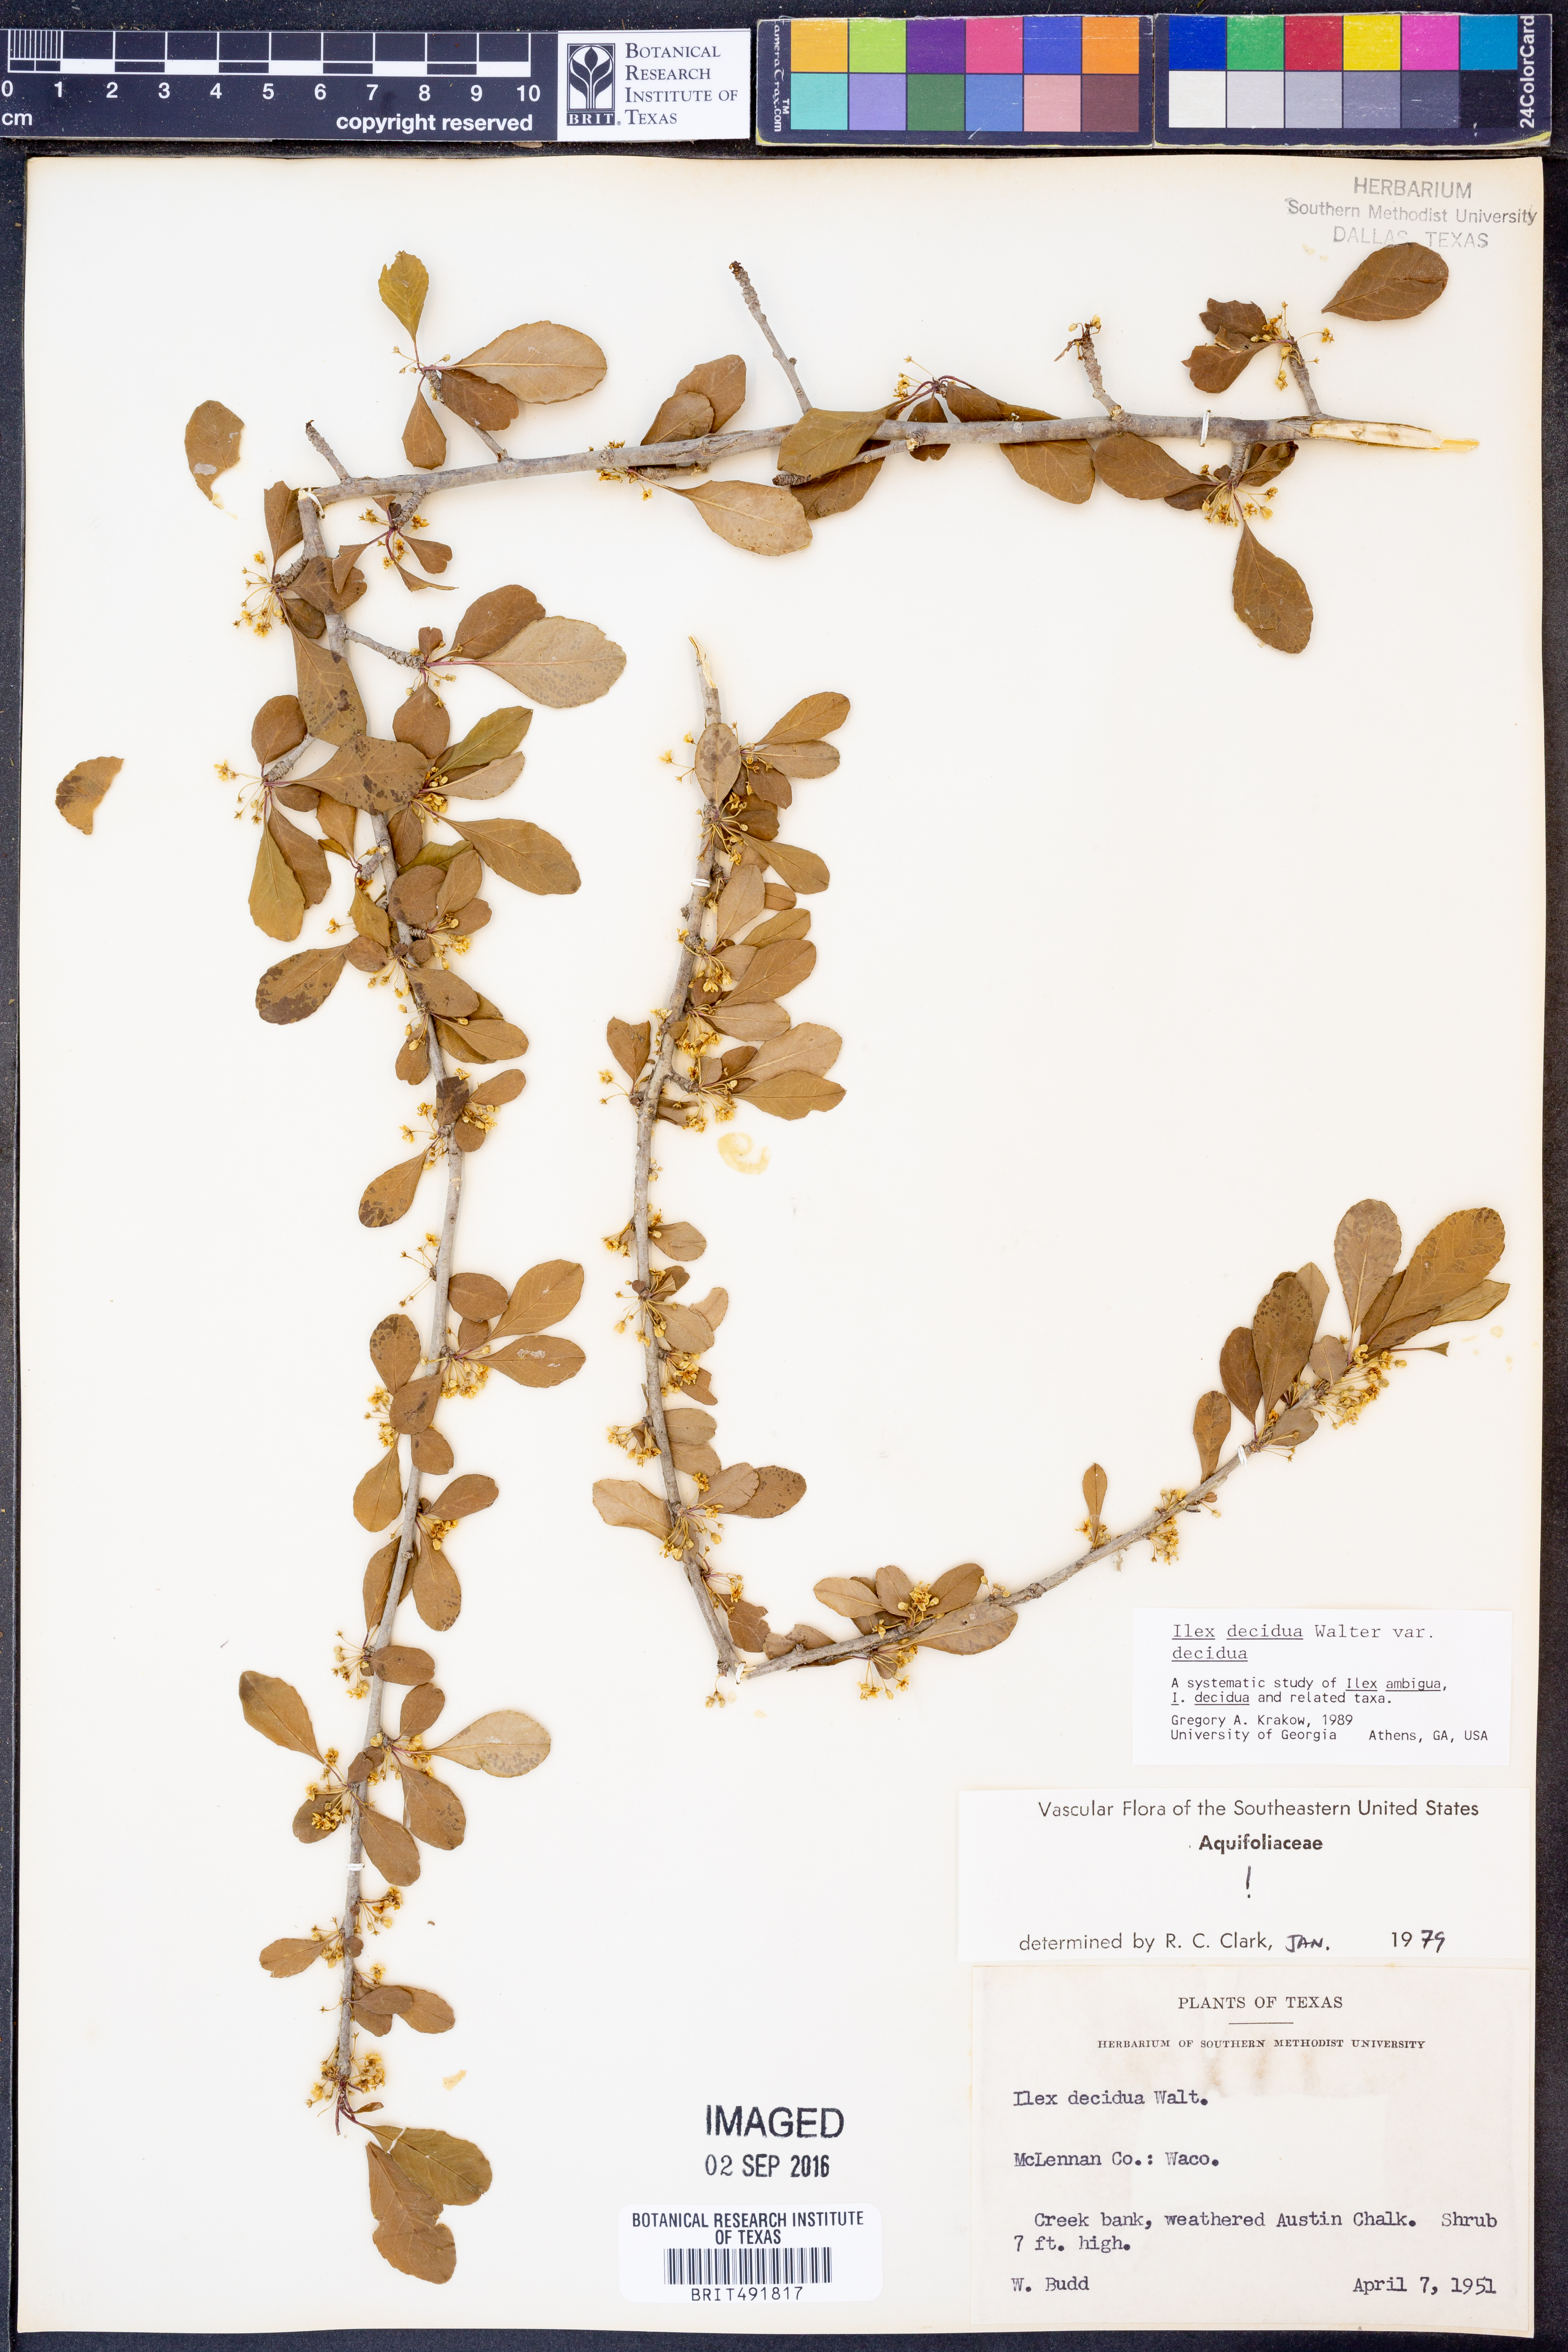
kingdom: Plantae
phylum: Tracheophyta
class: Magnoliopsida
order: Aquifoliales
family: Aquifoliaceae
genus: Ilex
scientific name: Ilex decidua
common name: Possum-haw
